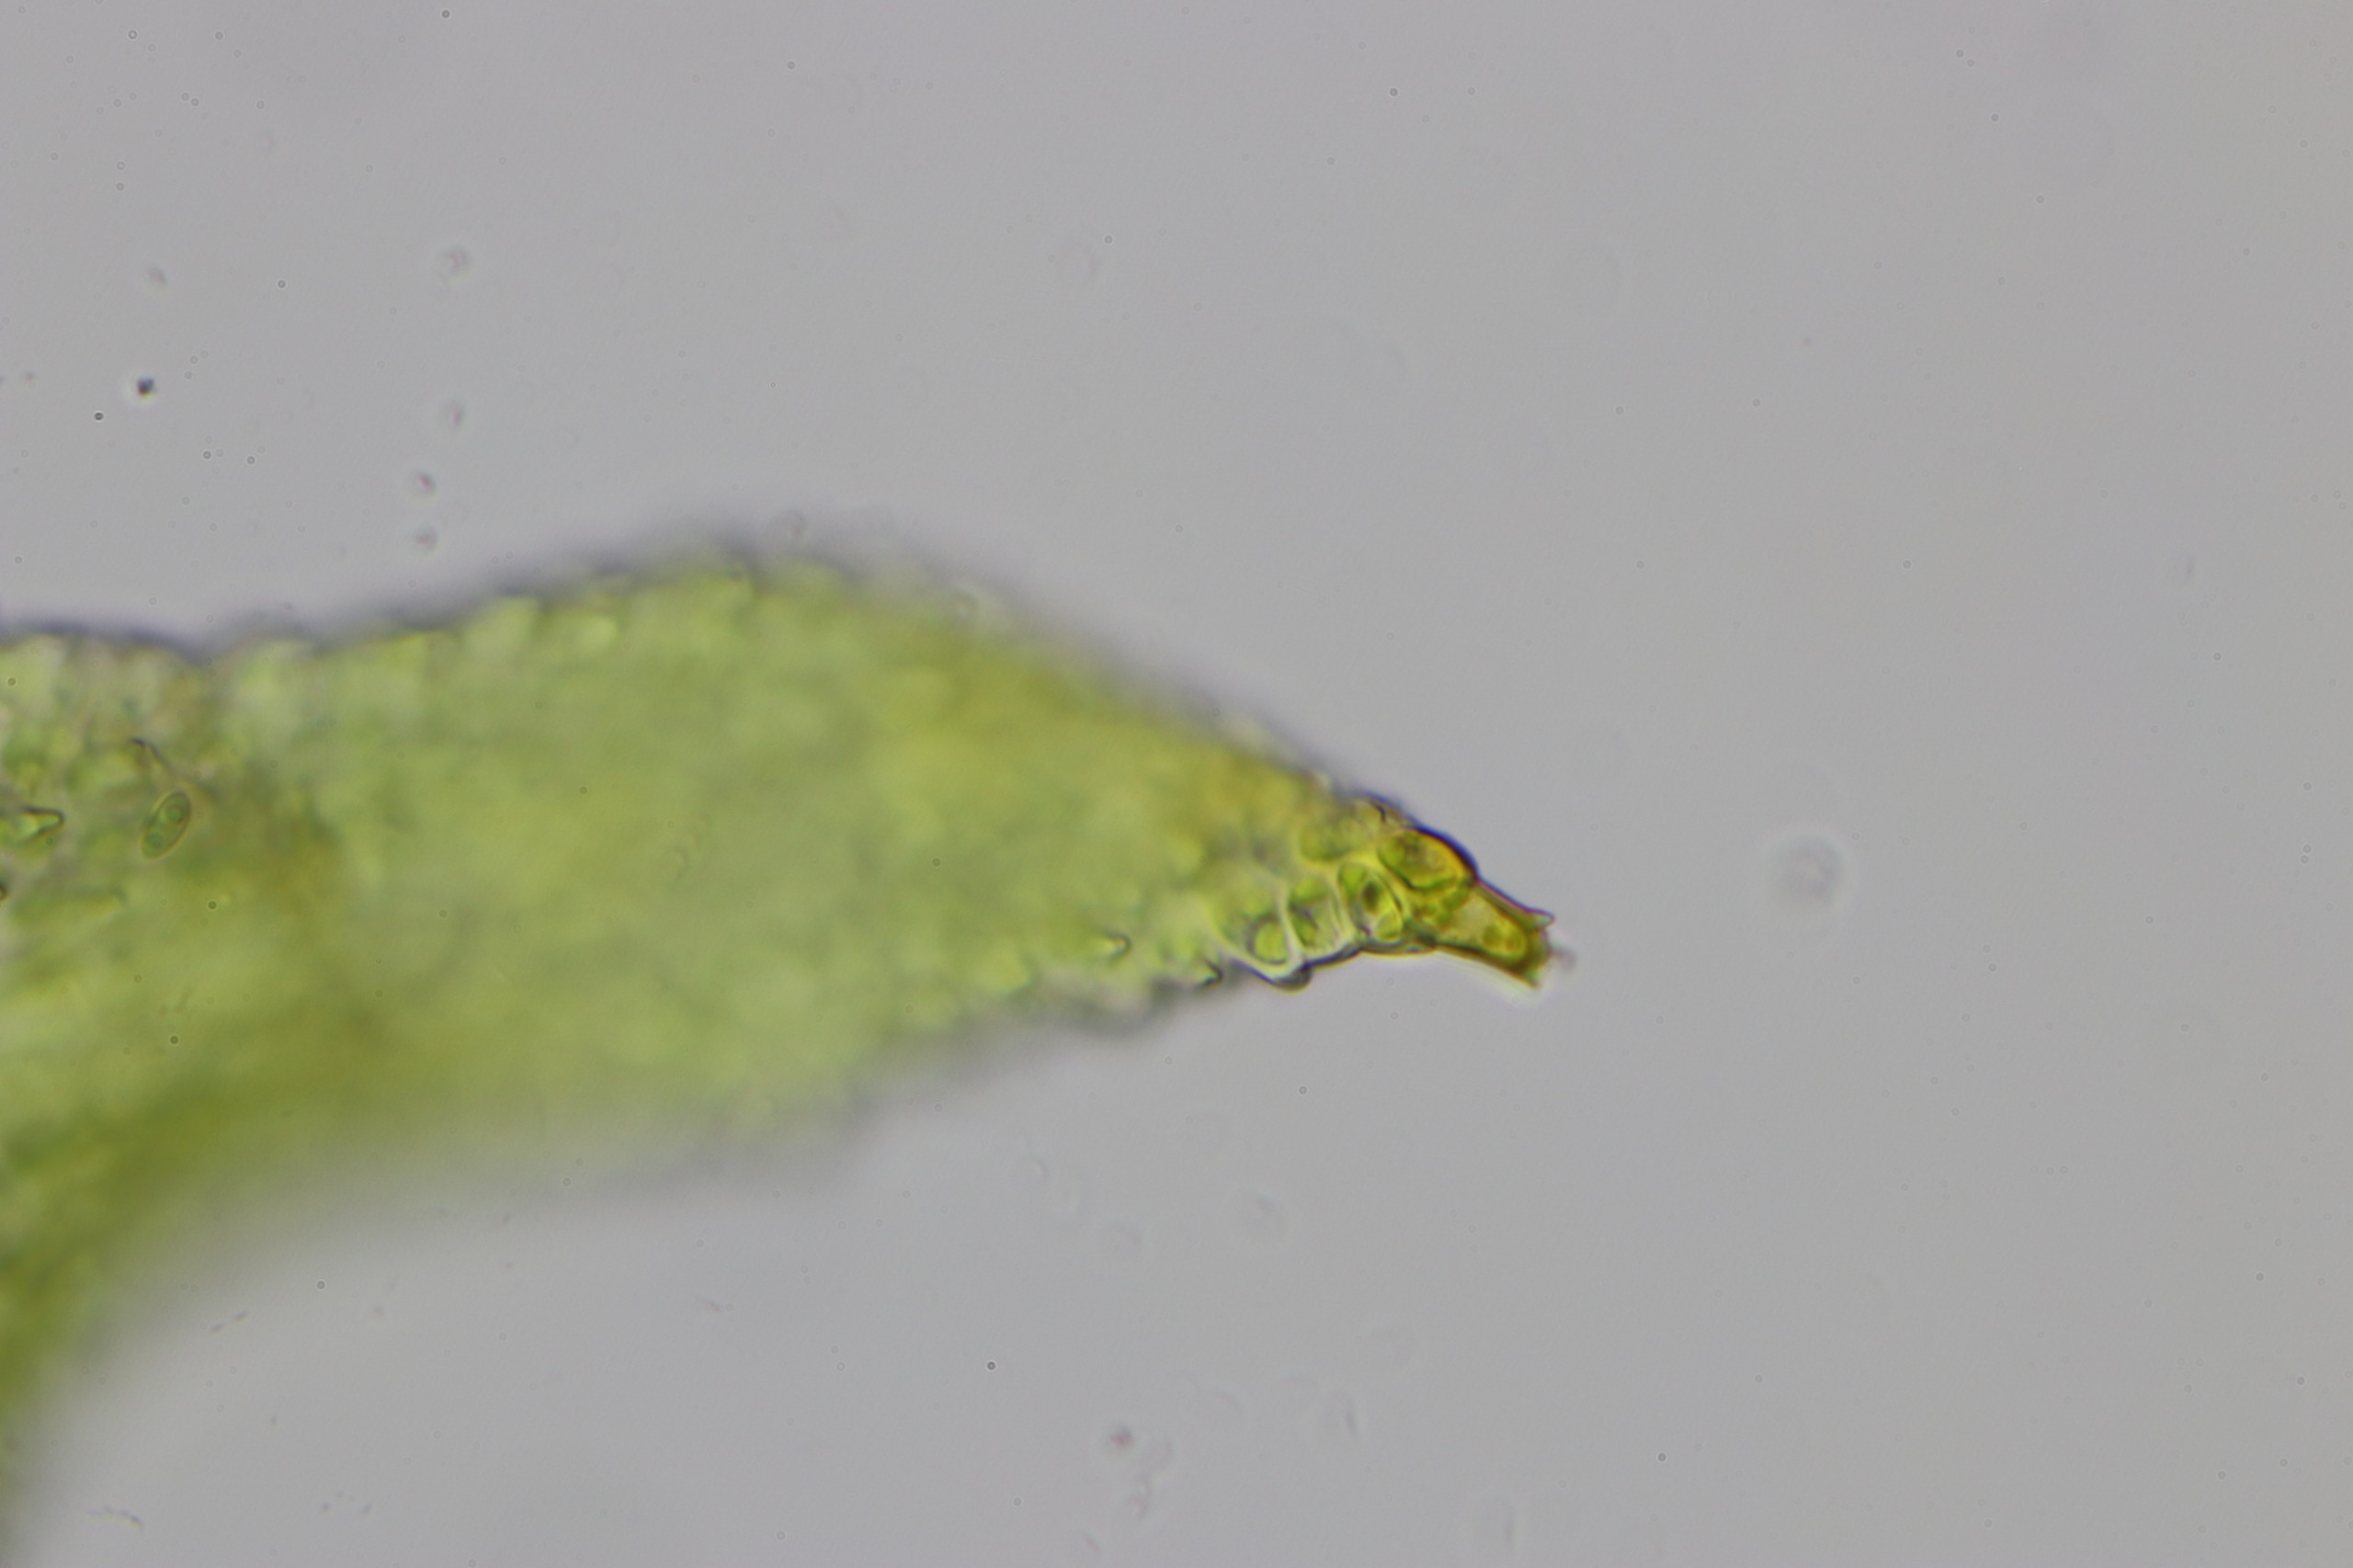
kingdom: Plantae
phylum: Bryophyta
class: Bryopsida
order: Hypnales
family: Thuidiaceae
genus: Thuidium
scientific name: Thuidium delicatulum
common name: Fingrenet bregnemos
